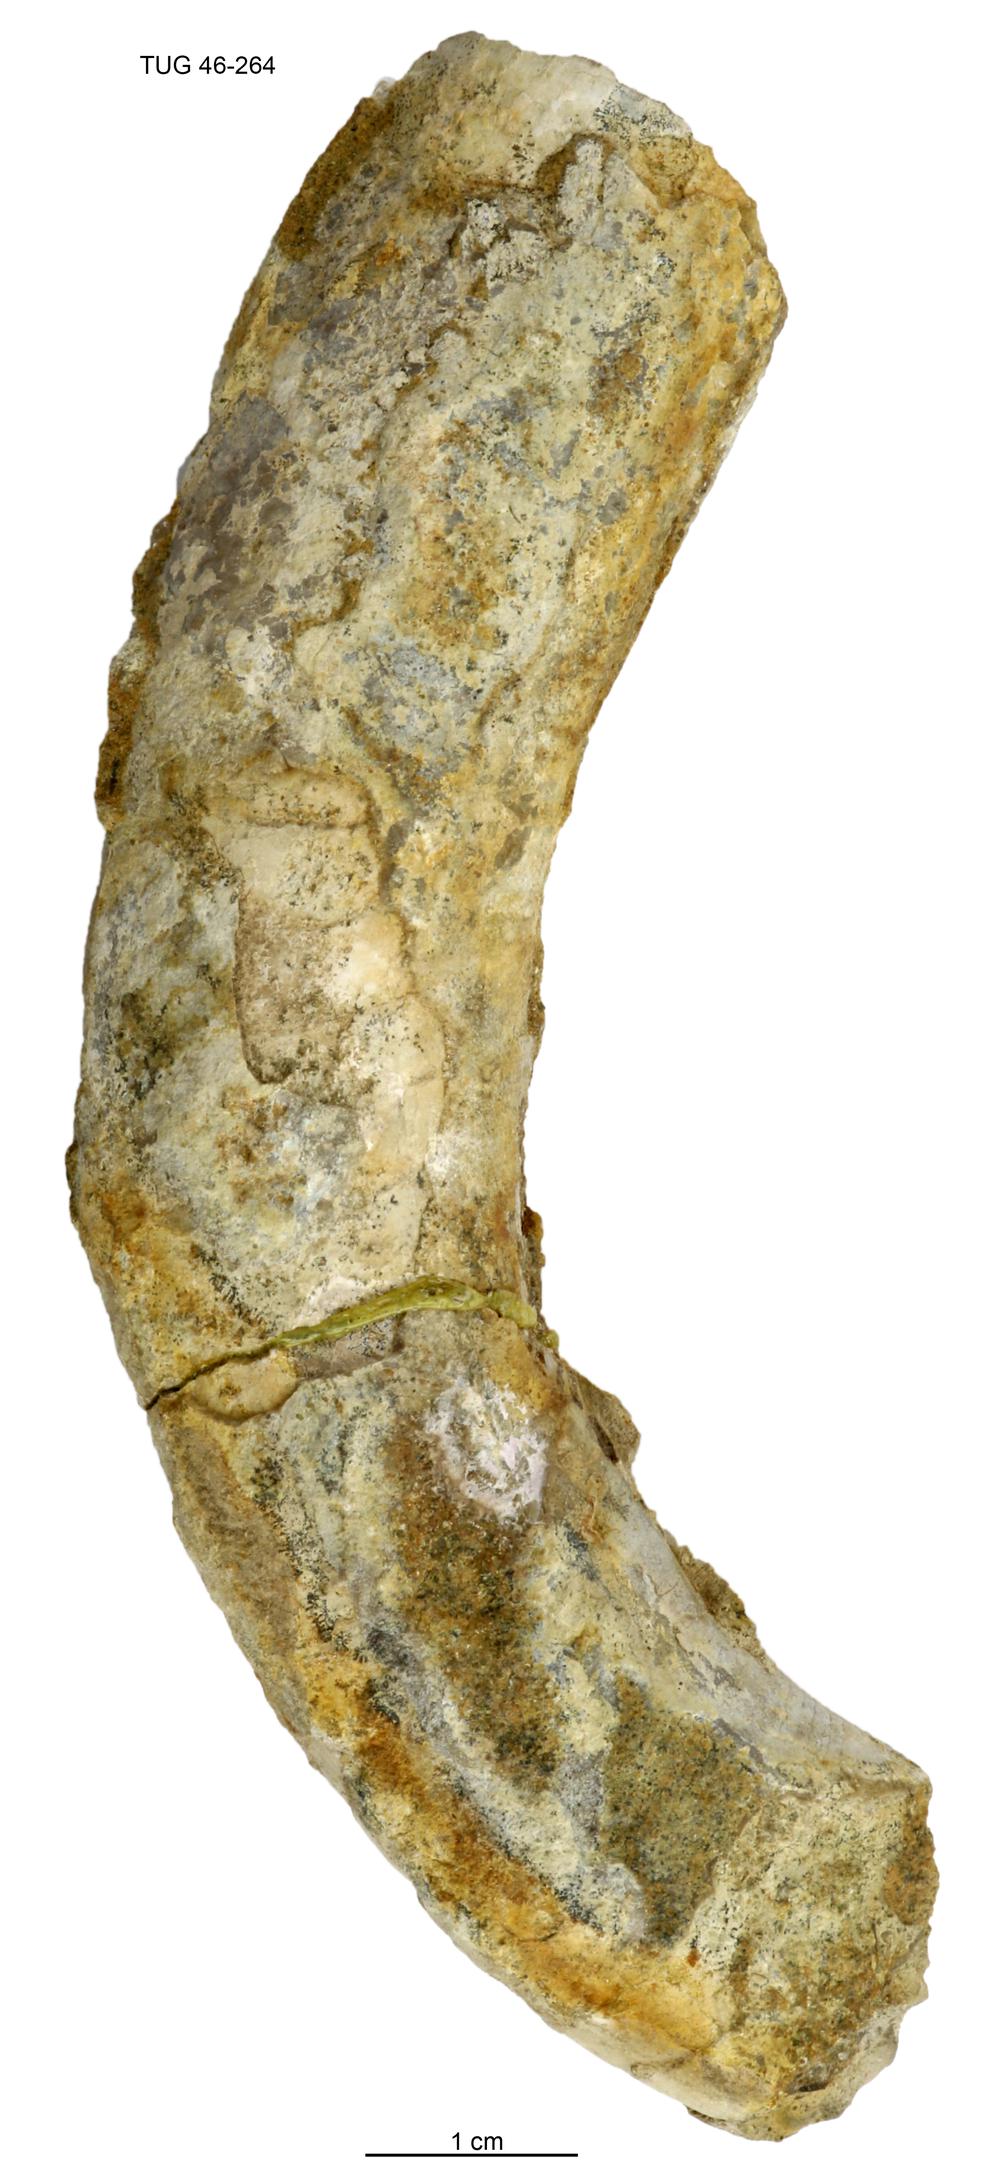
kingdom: Animalia
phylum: Mollusca
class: Cephalopoda
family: Tarphyceratidae
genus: Planctoceras
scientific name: Planctoceras
